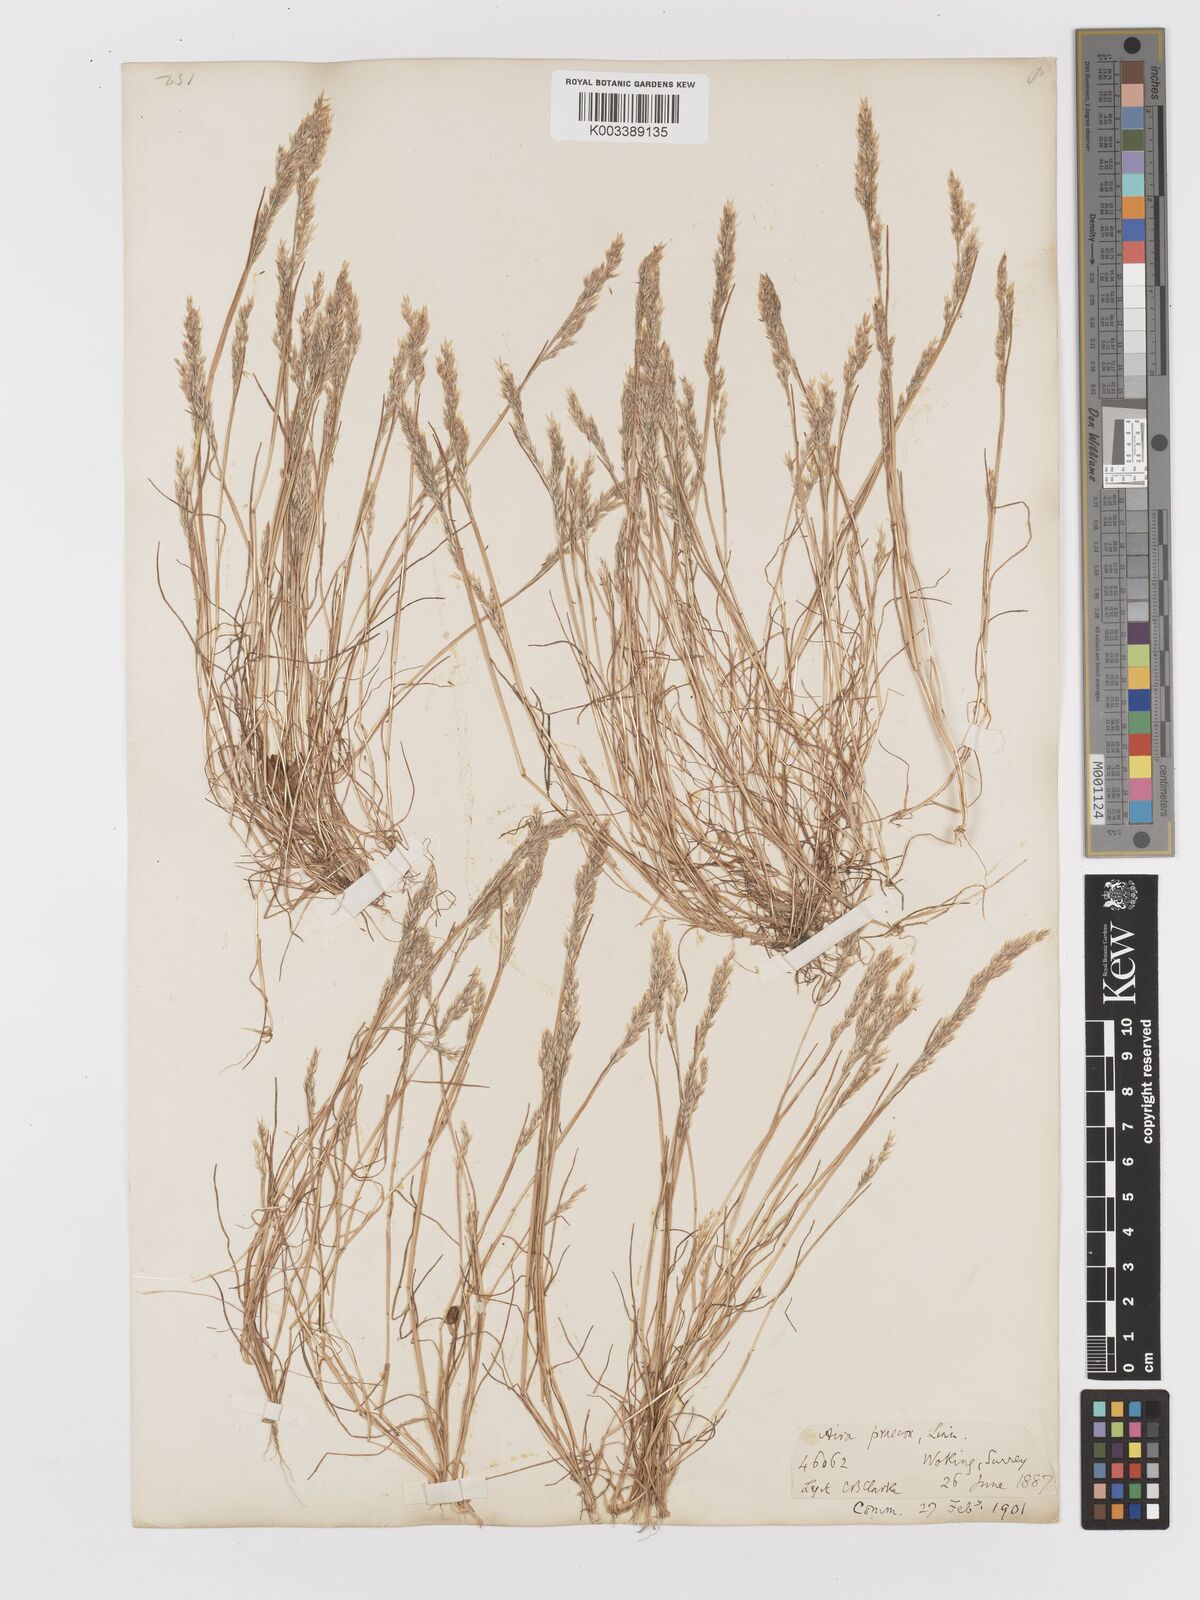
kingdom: Plantae
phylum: Tracheophyta
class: Liliopsida
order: Poales
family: Poaceae
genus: Aira
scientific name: Aira praecox
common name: Early hair-grass
